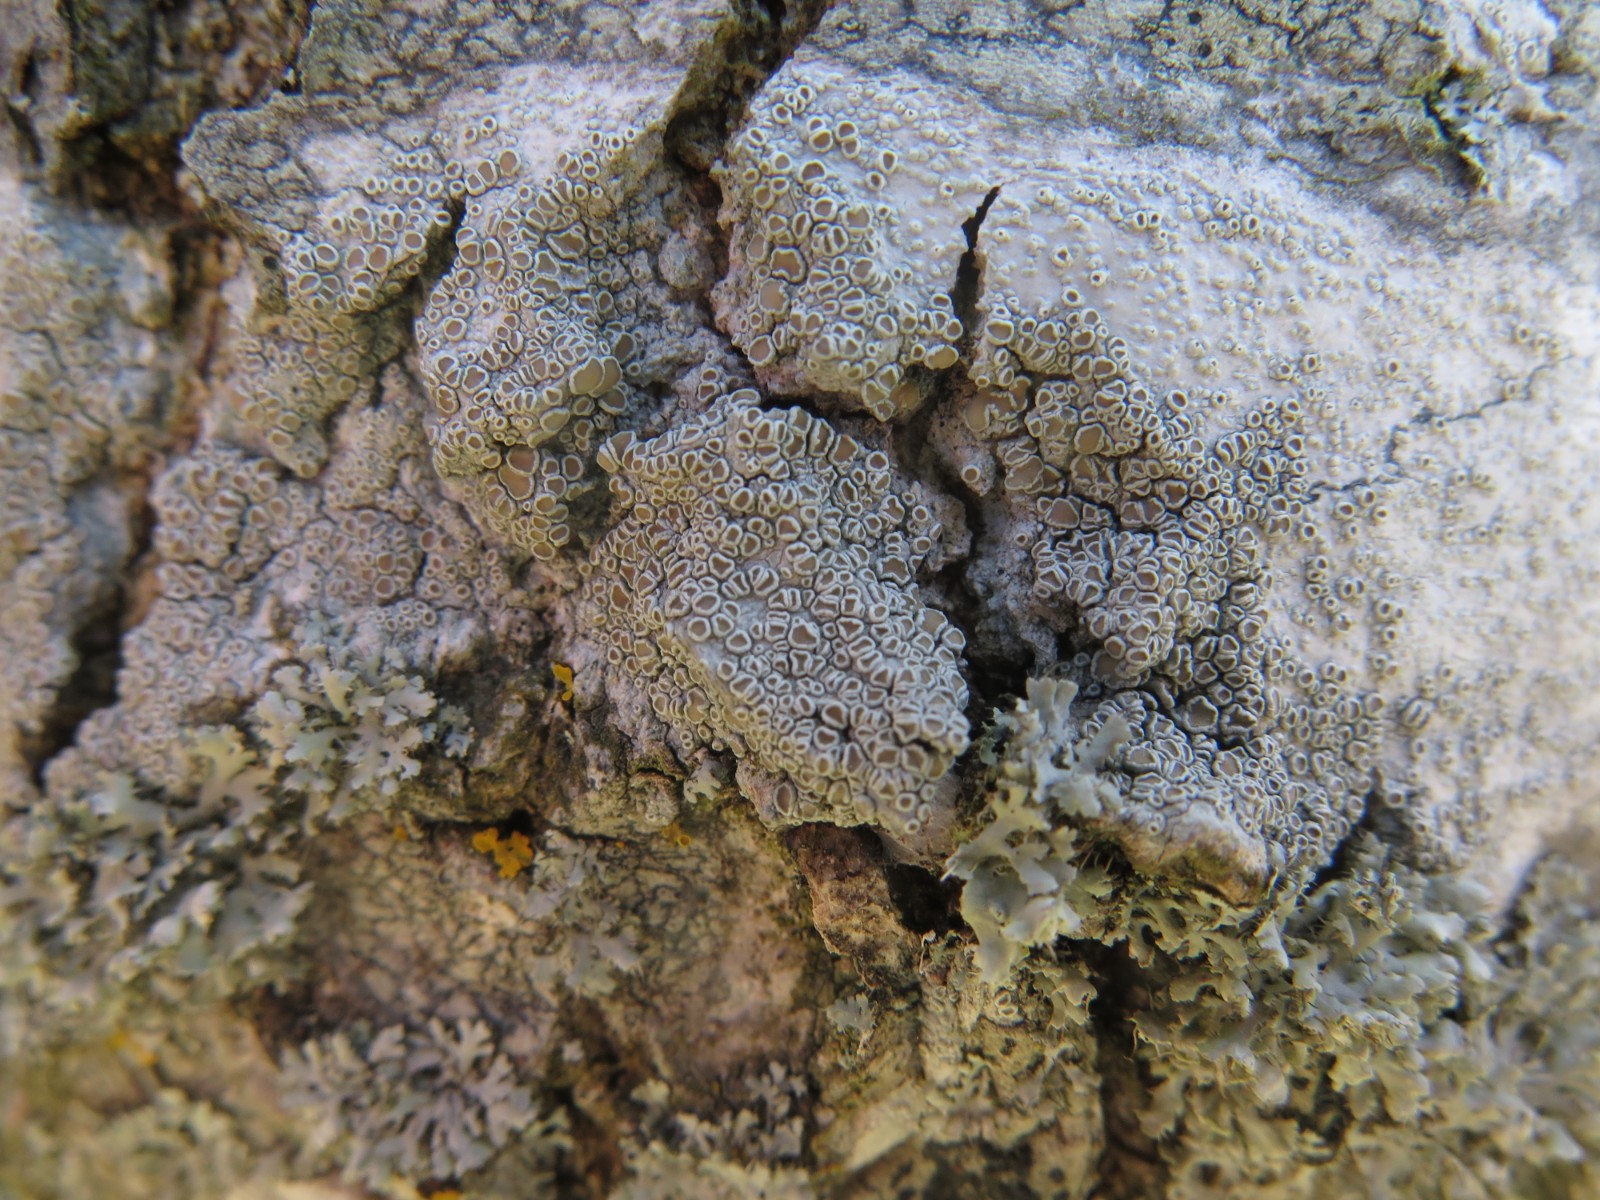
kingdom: Fungi
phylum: Ascomycota
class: Lecanoromycetes
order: Lecanorales
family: Lecanoraceae
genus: Lecanora
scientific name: Lecanora chlarotera
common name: brun kantskivelav
